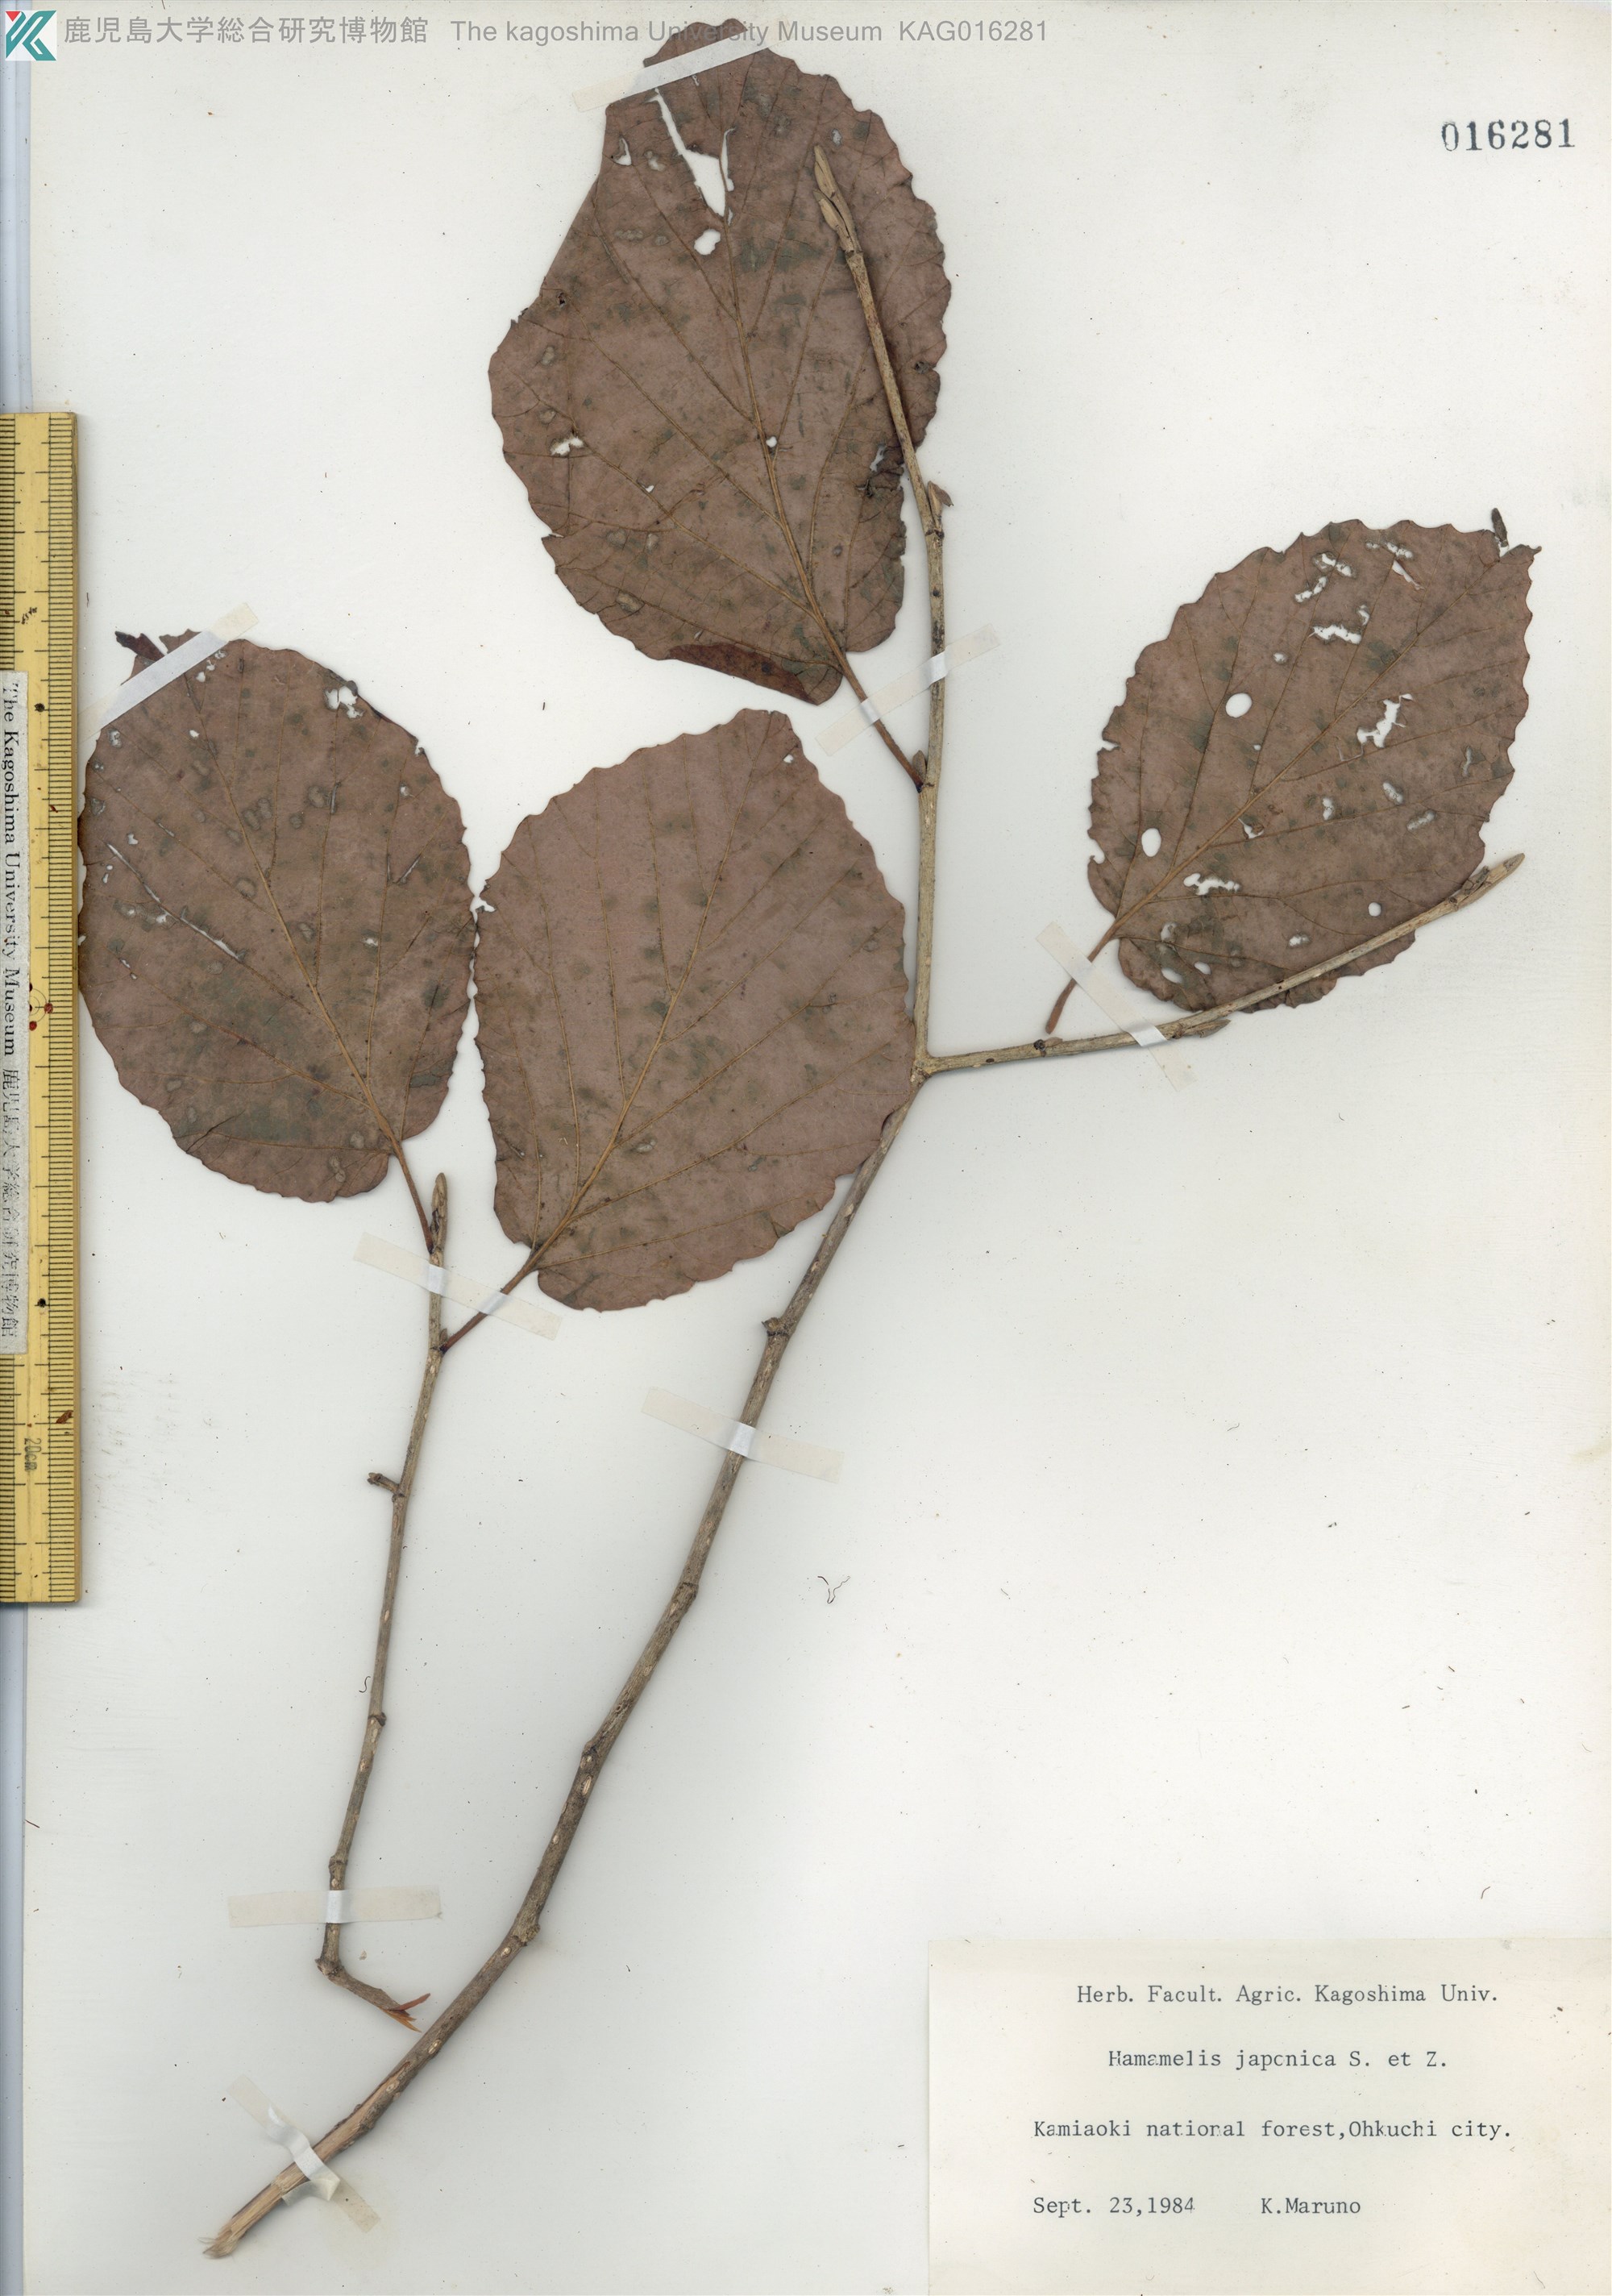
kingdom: Plantae
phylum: Tracheophyta
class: Magnoliopsida
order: Saxifragales
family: Hamamelidaceae
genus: Hamamelis
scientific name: Hamamelis japonica
